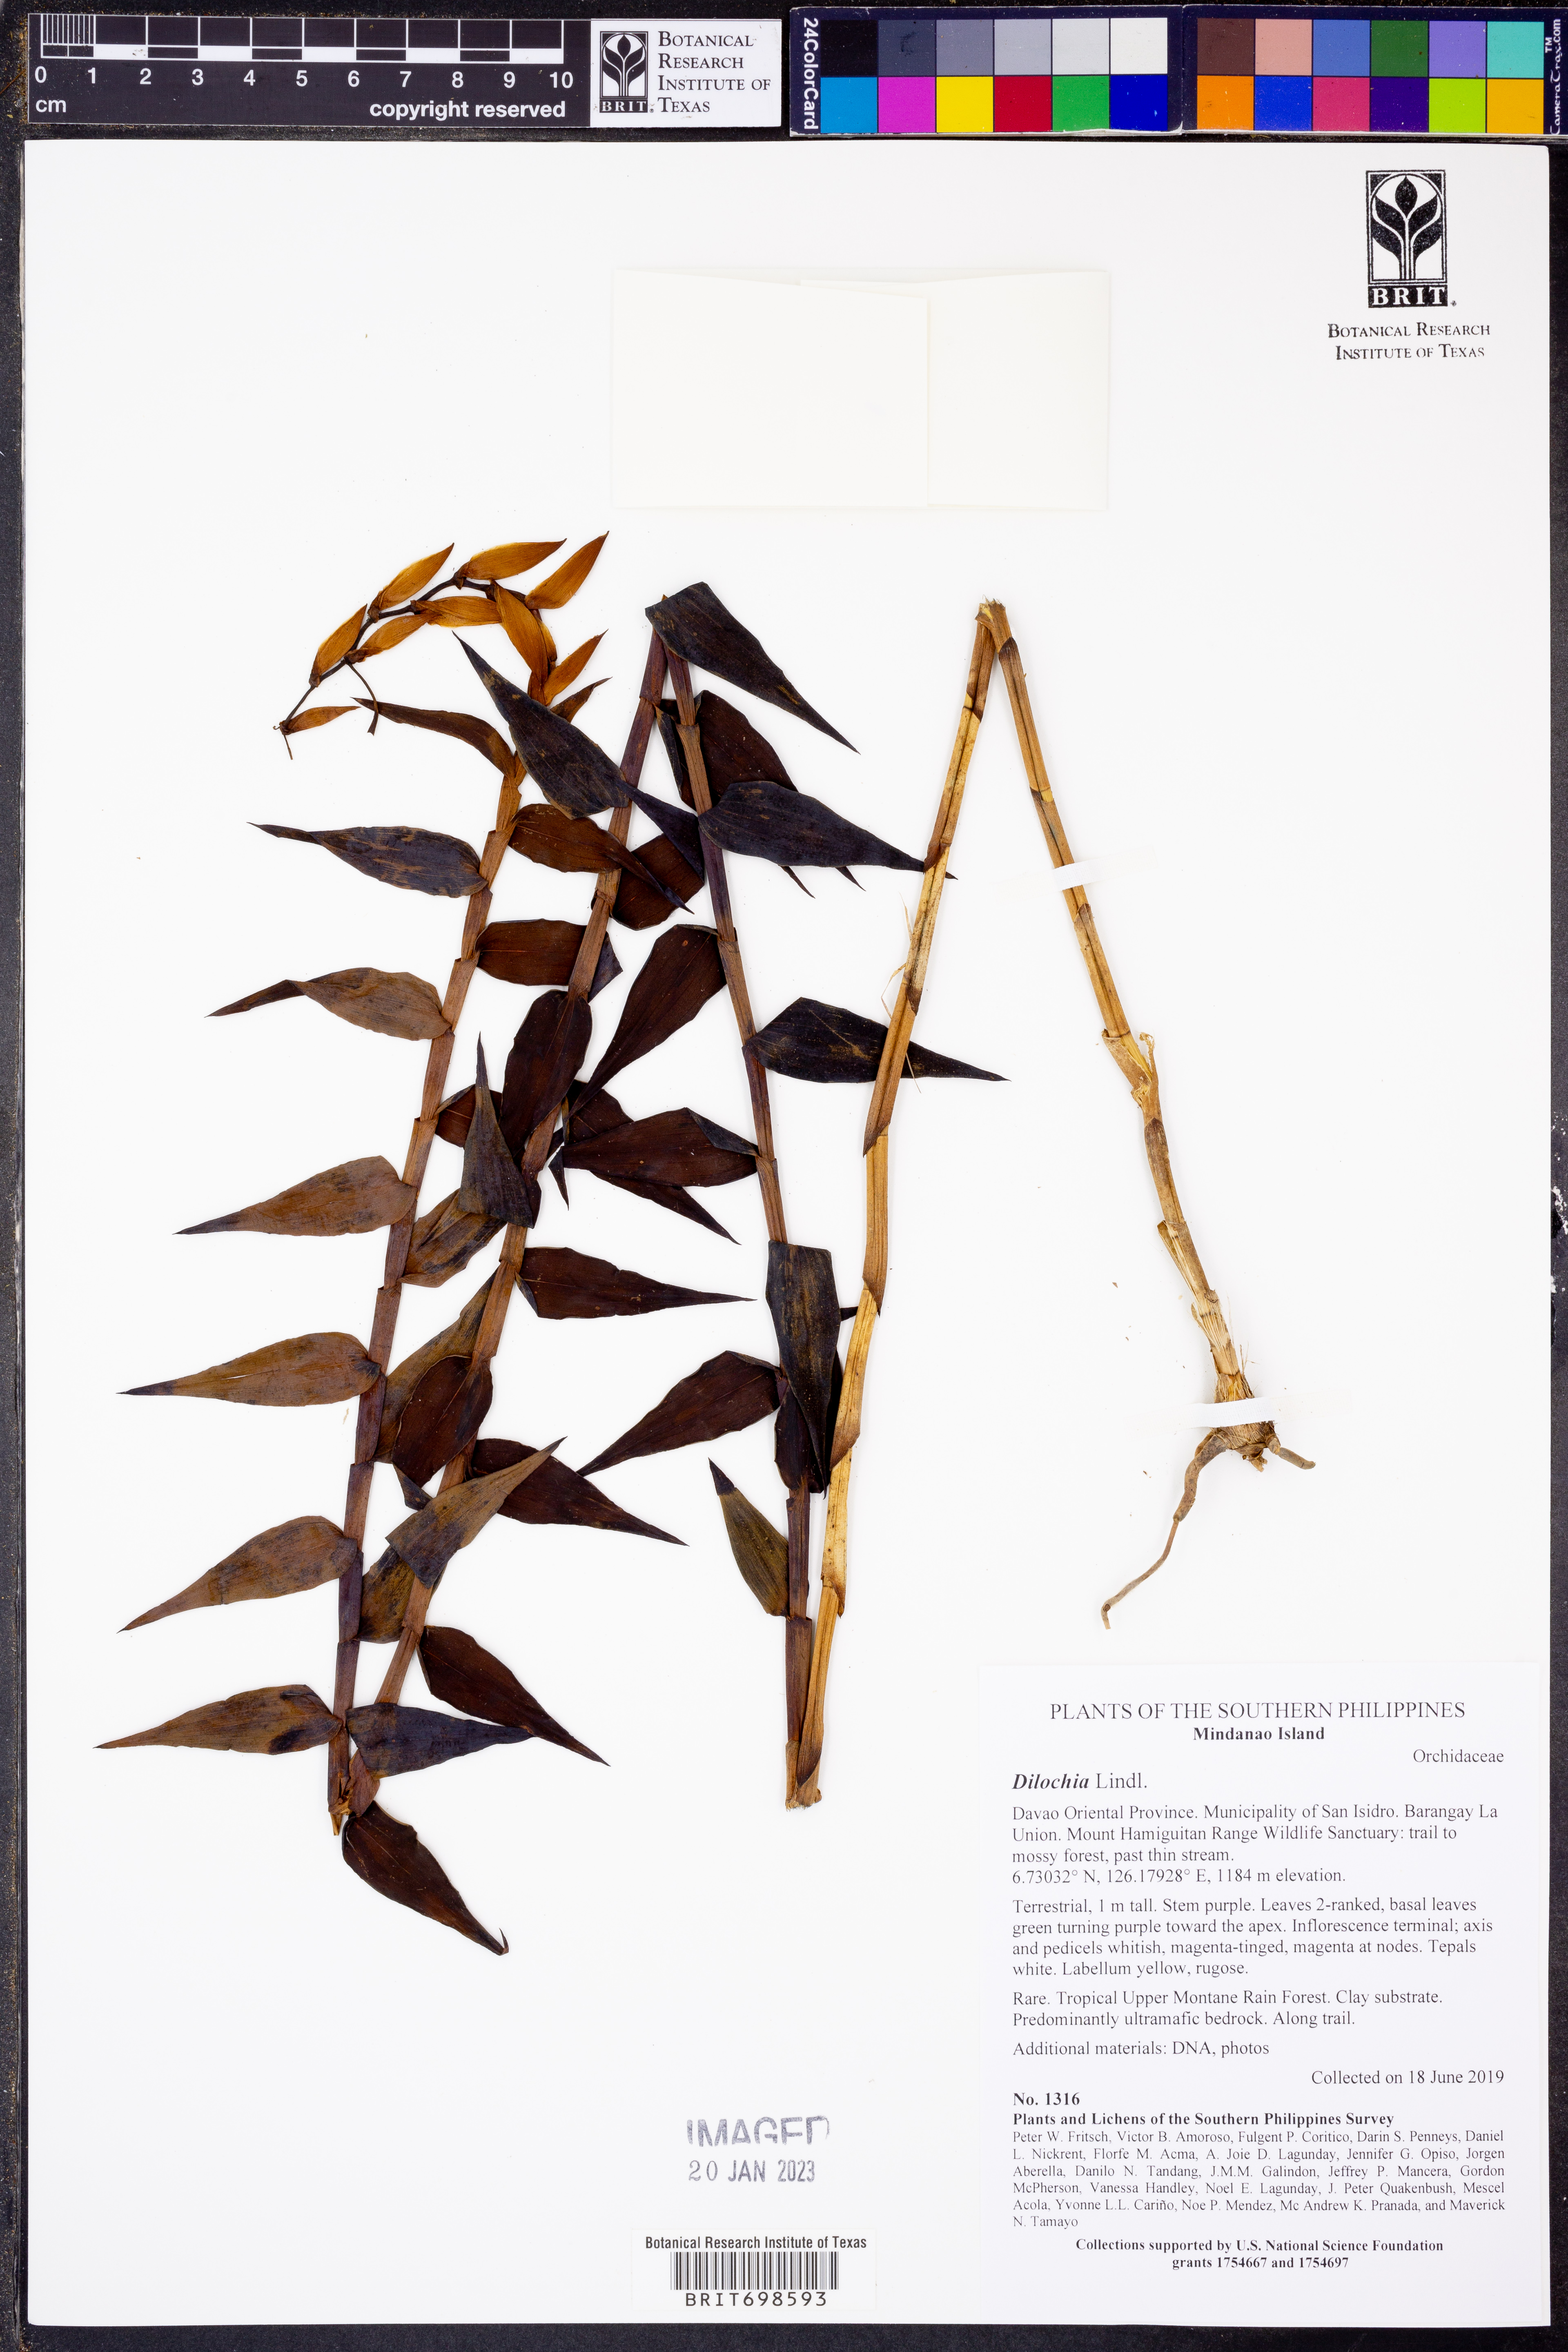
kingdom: Plantae
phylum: Tracheophyta
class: Liliopsida
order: Asparagales
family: Orchidaceae
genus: Dilochia
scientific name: Dilochia
